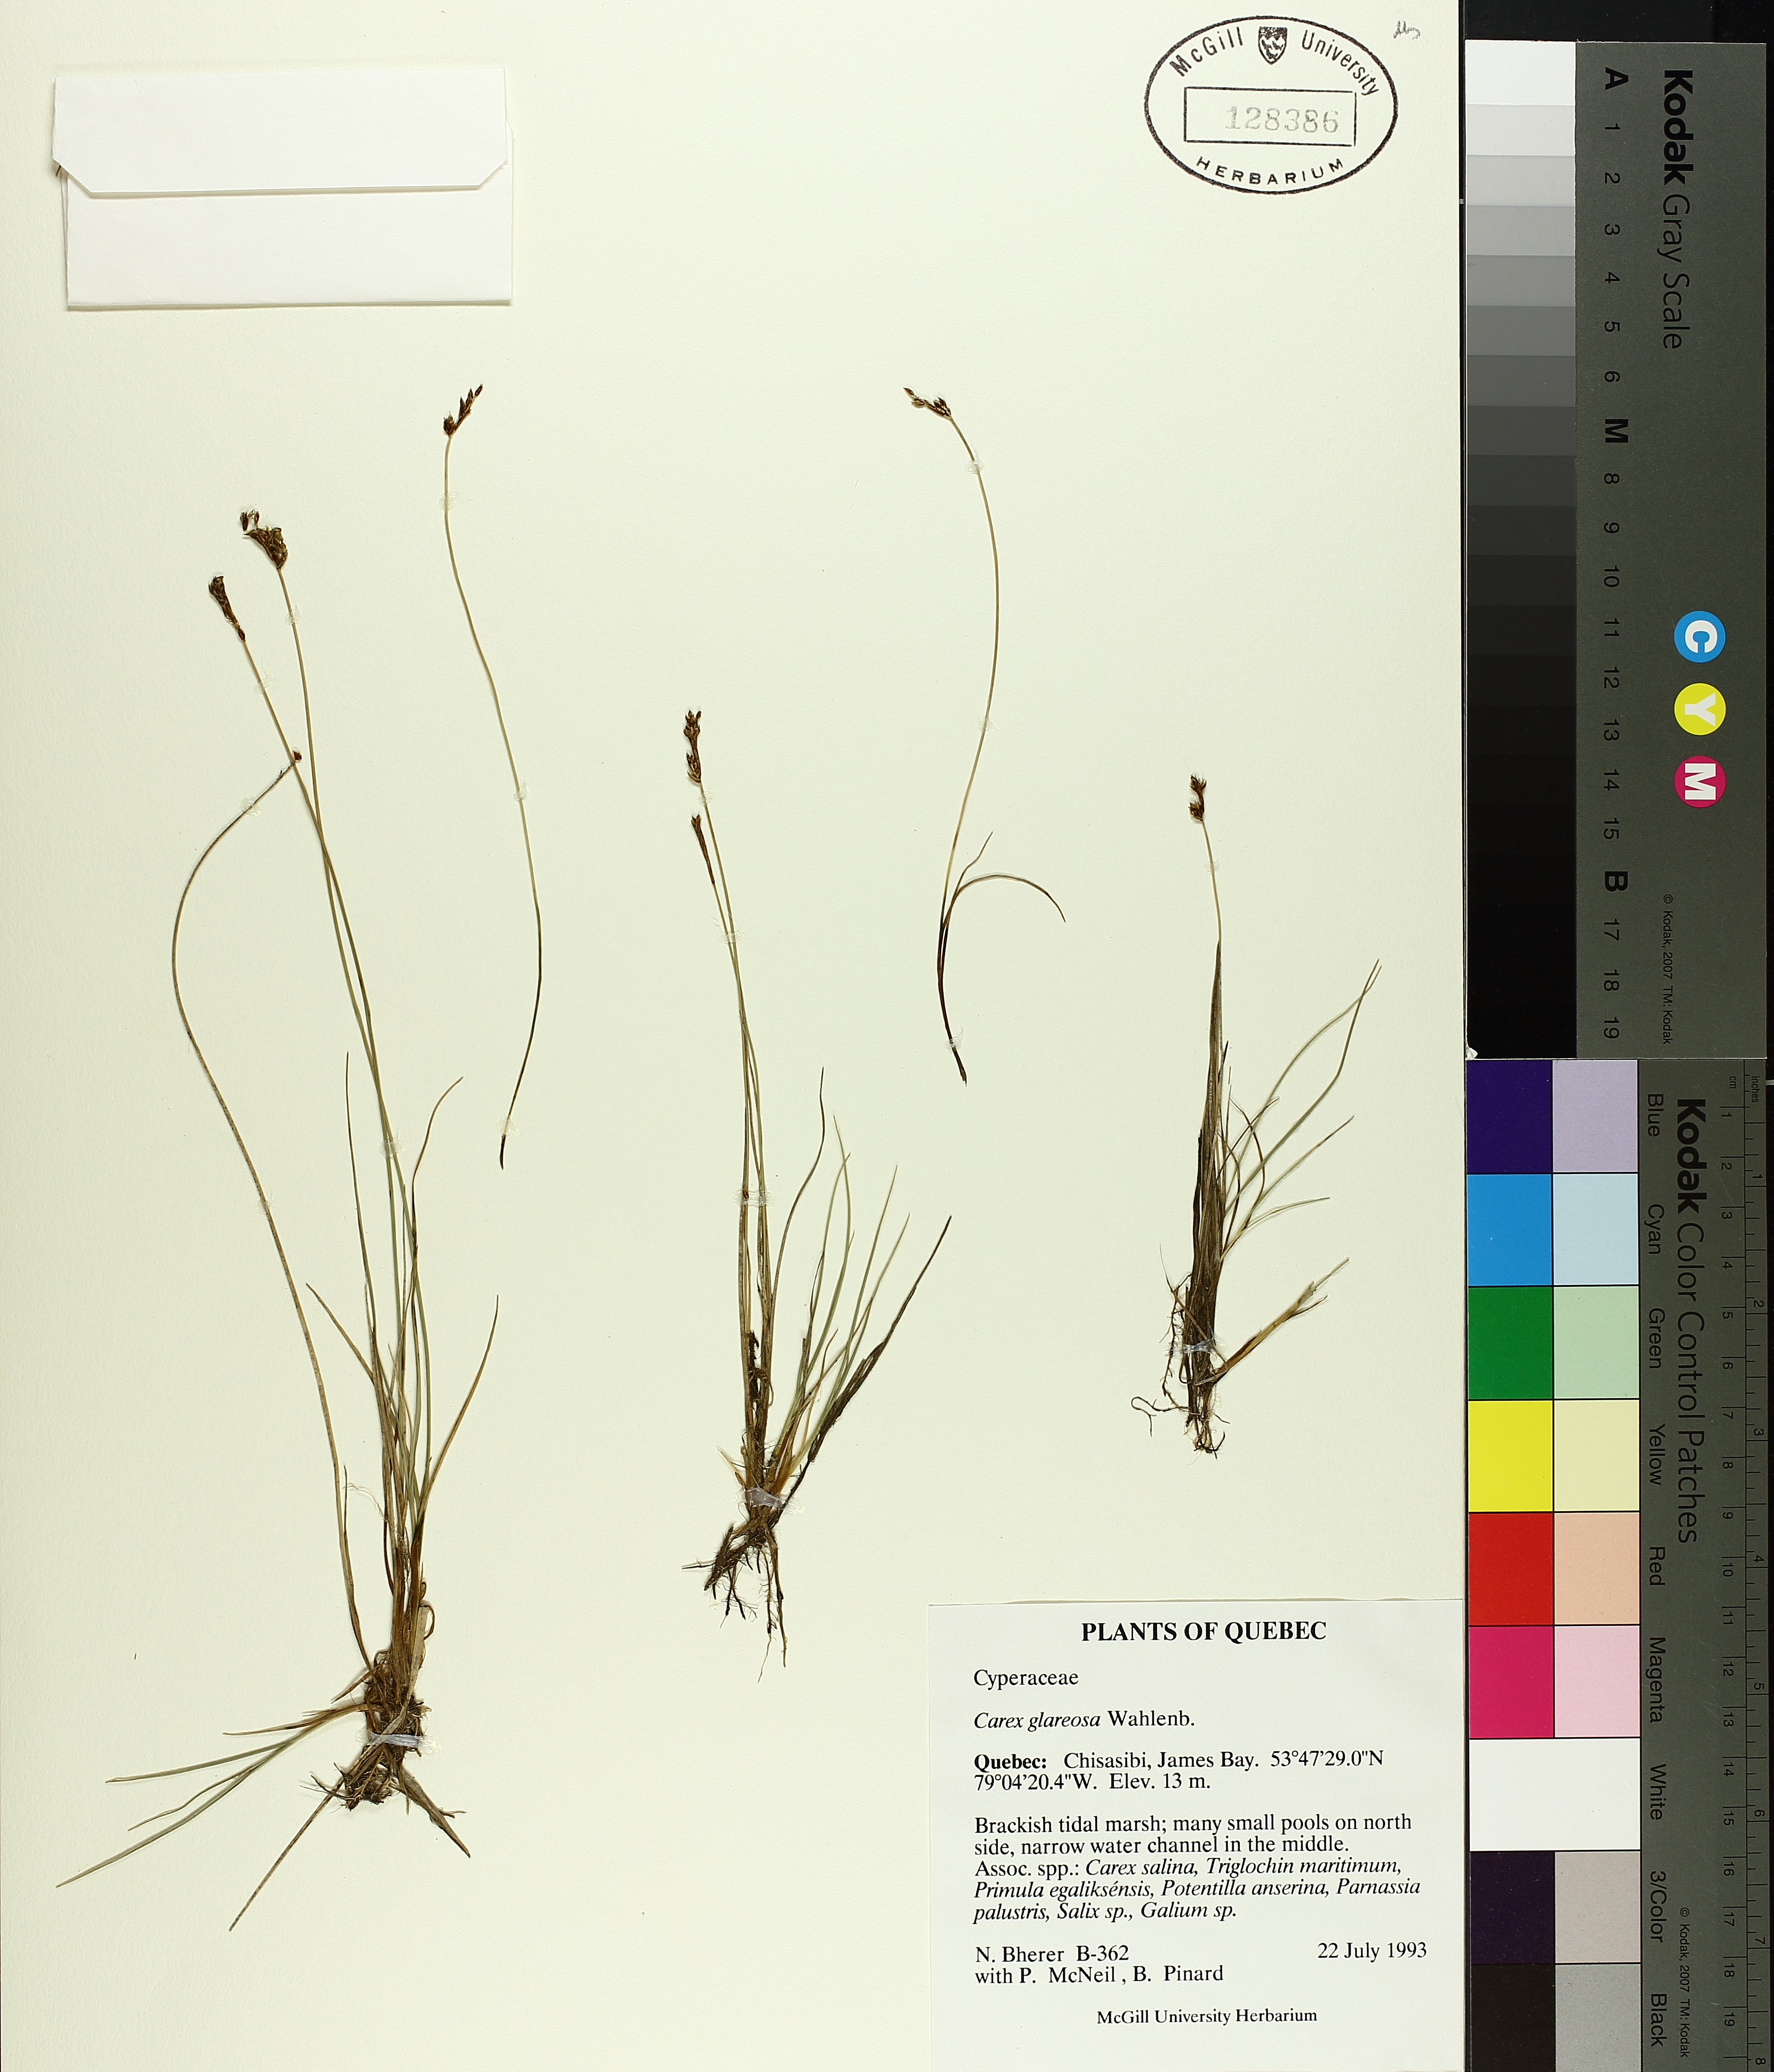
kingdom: Plantae
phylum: Tracheophyta
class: Liliopsida
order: Poales
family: Cyperaceae
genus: Carex
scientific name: Carex glareosa
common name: Clustered sedge
